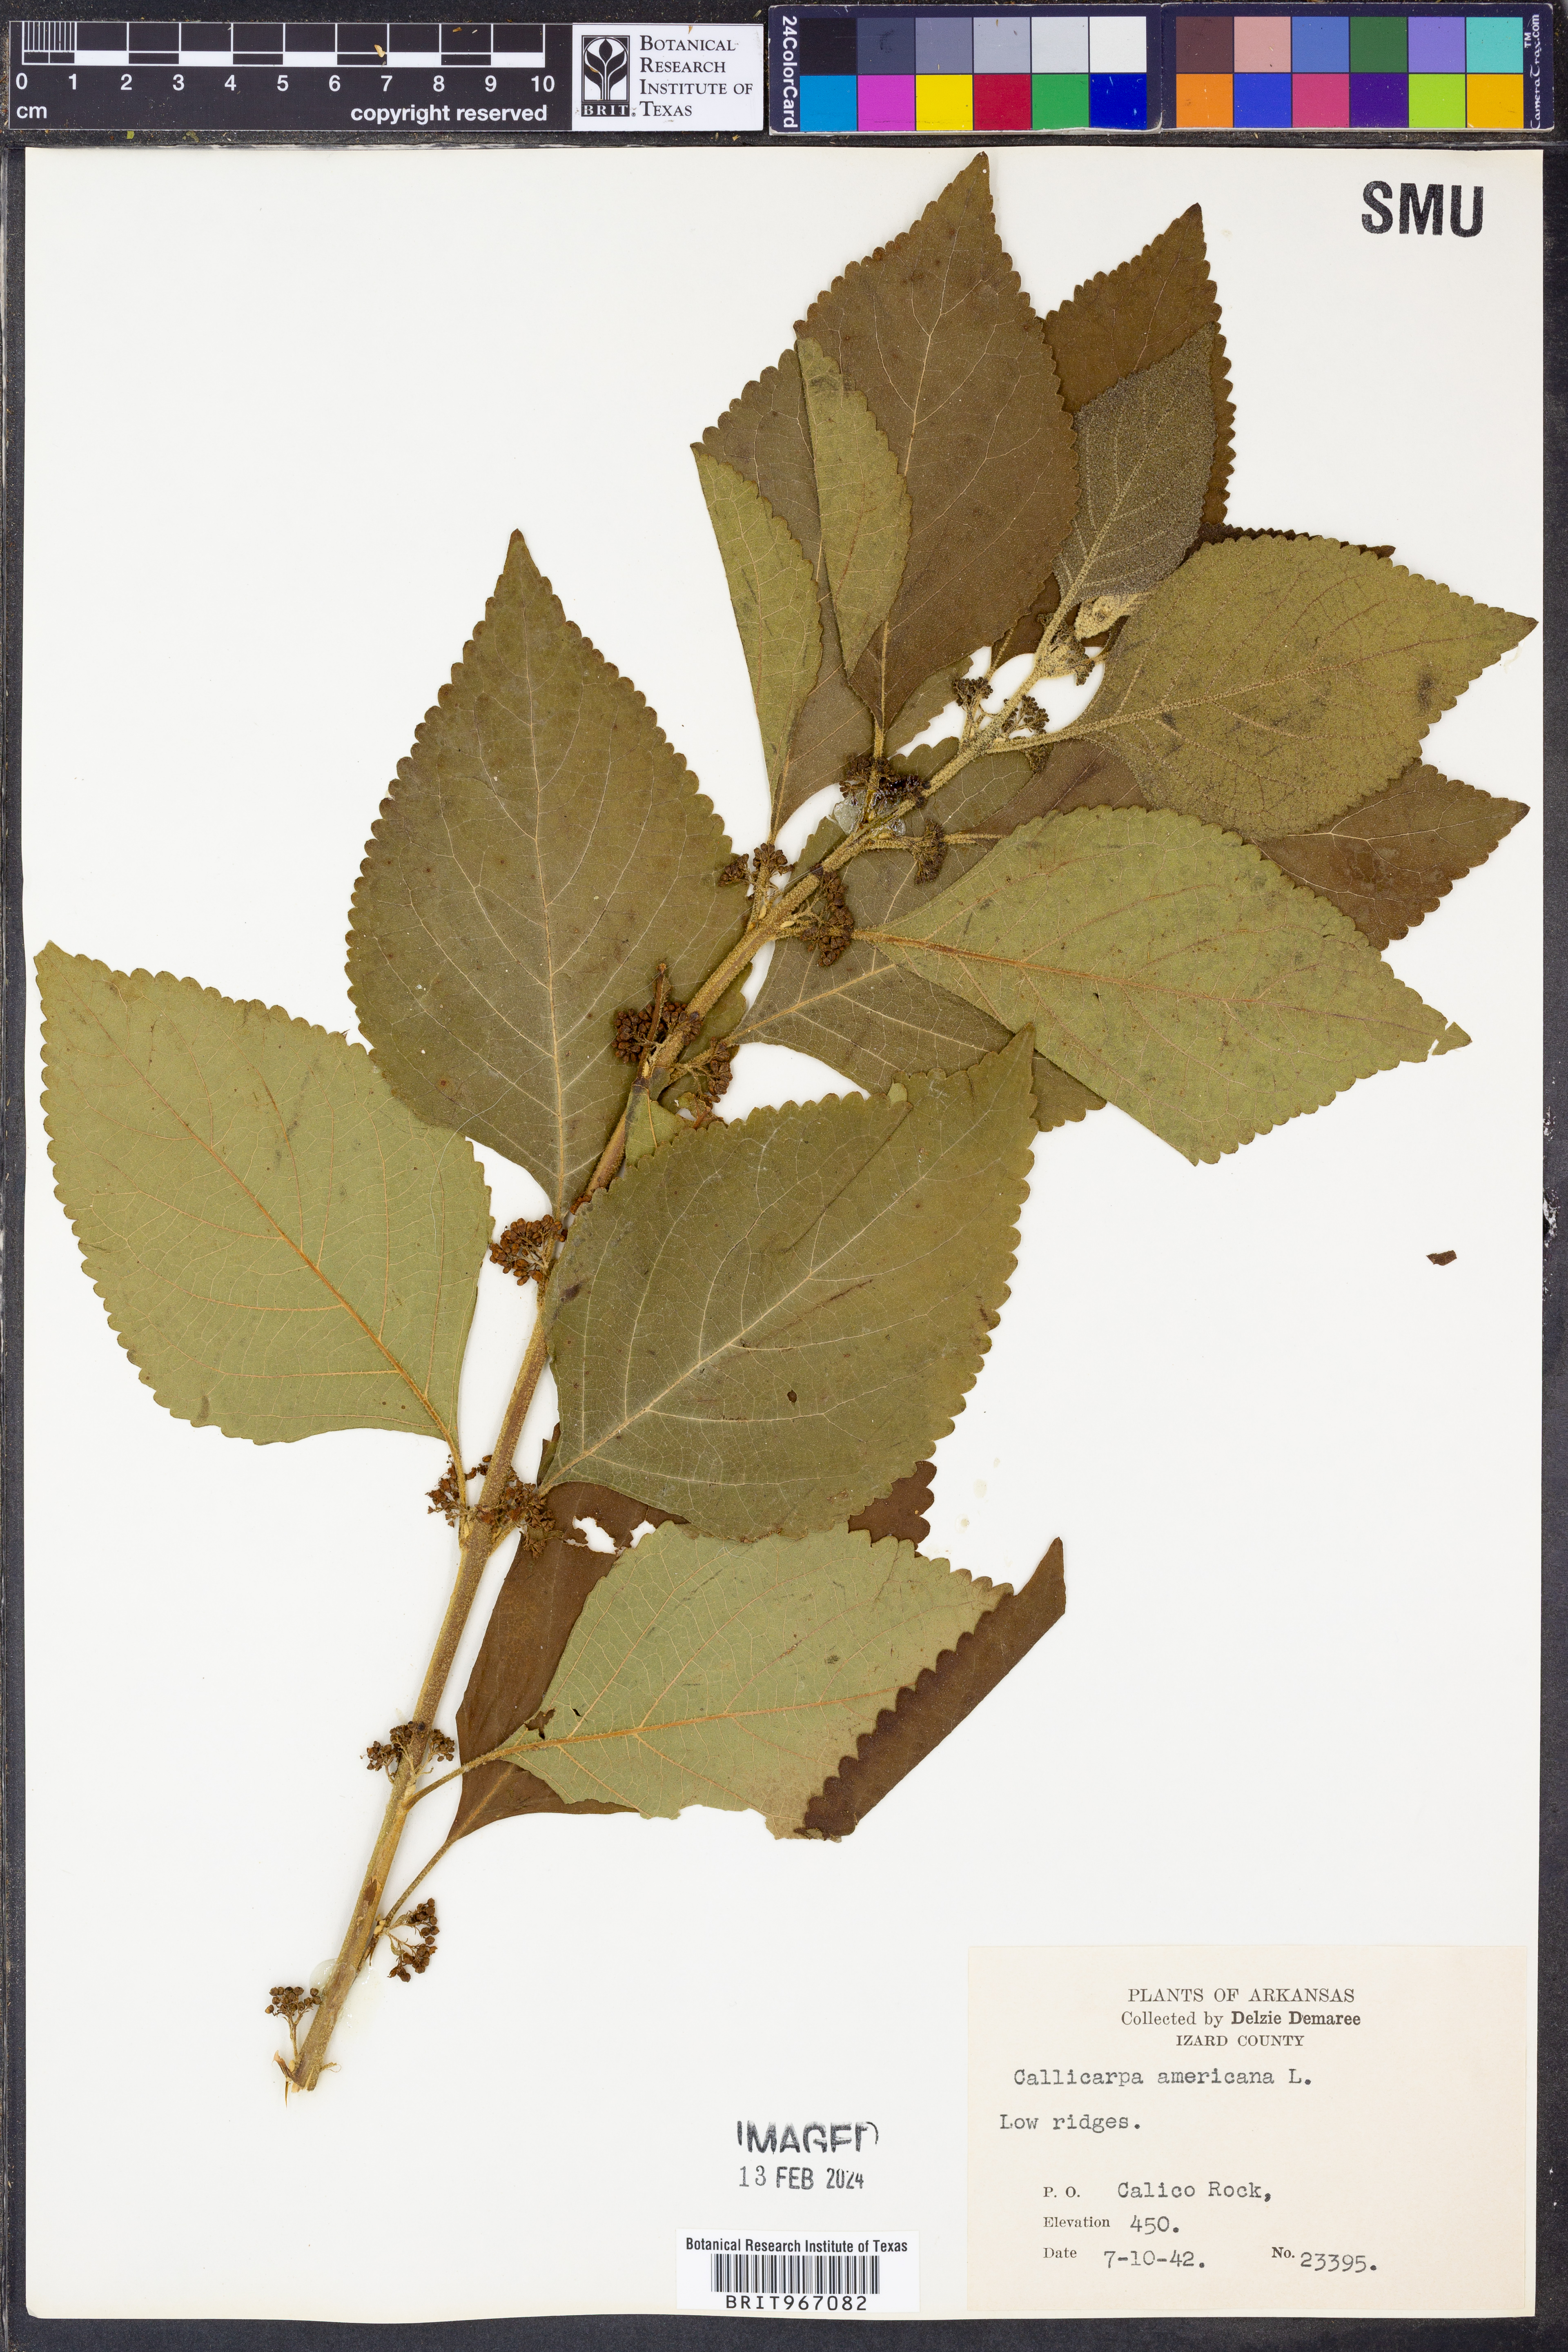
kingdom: Plantae
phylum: Tracheophyta
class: Magnoliopsida
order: Lamiales
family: Lamiaceae
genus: Callicarpa
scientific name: Callicarpa americana
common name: American beautyberry
